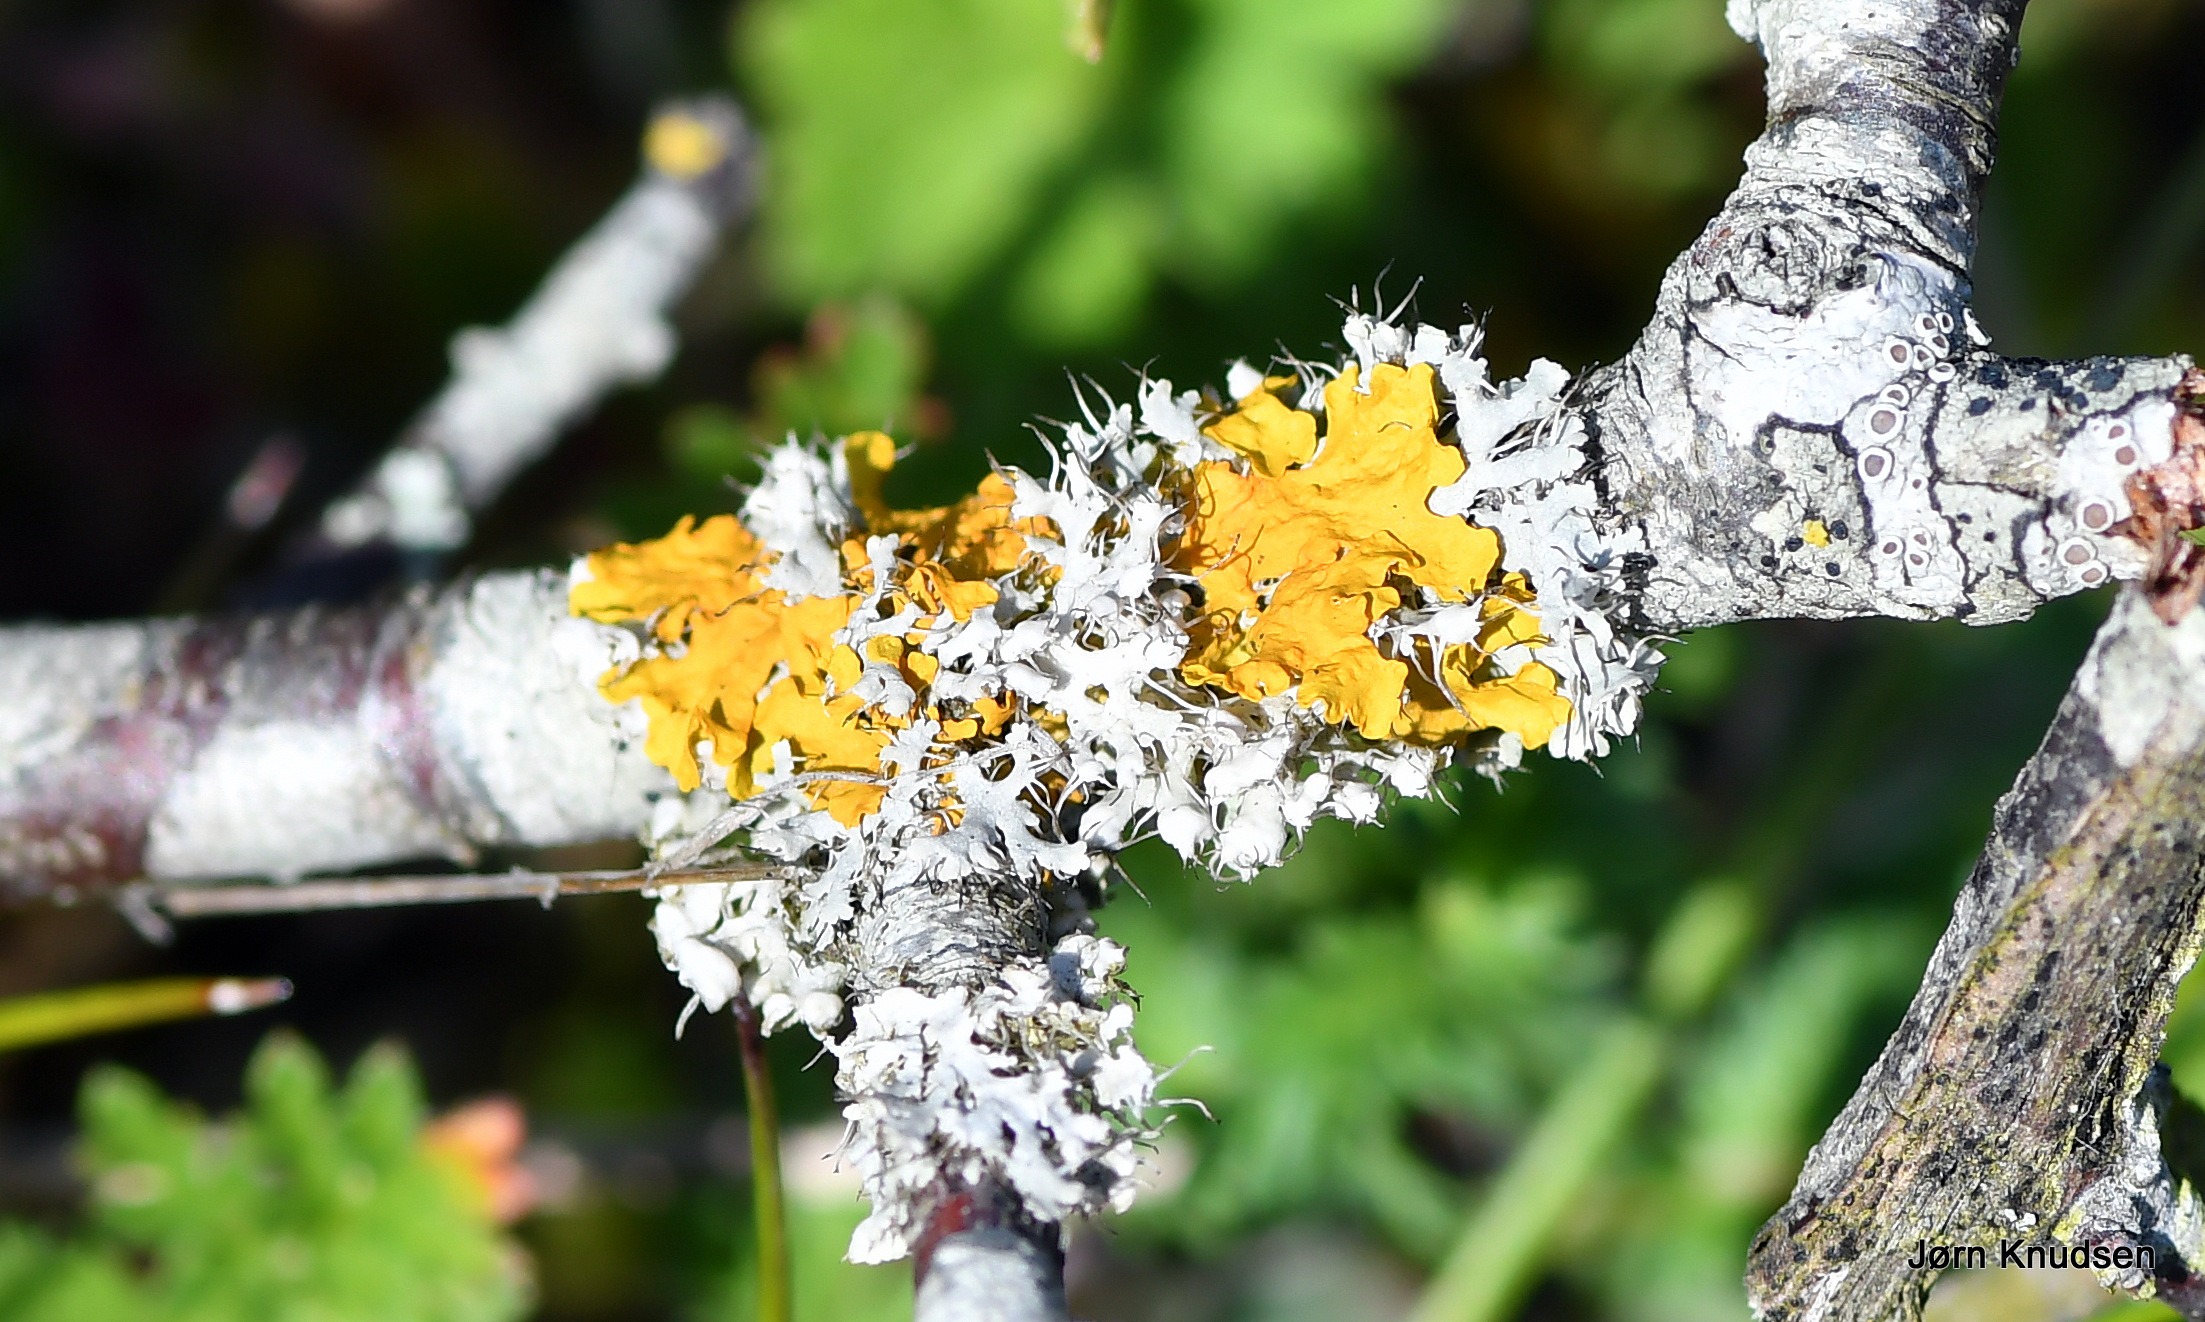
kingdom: Fungi
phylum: Ascomycota
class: Lecanoromycetes
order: Teloschistales
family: Teloschistaceae
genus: Xanthoria
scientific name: Xanthoria parietina
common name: Almindelig væggelav
